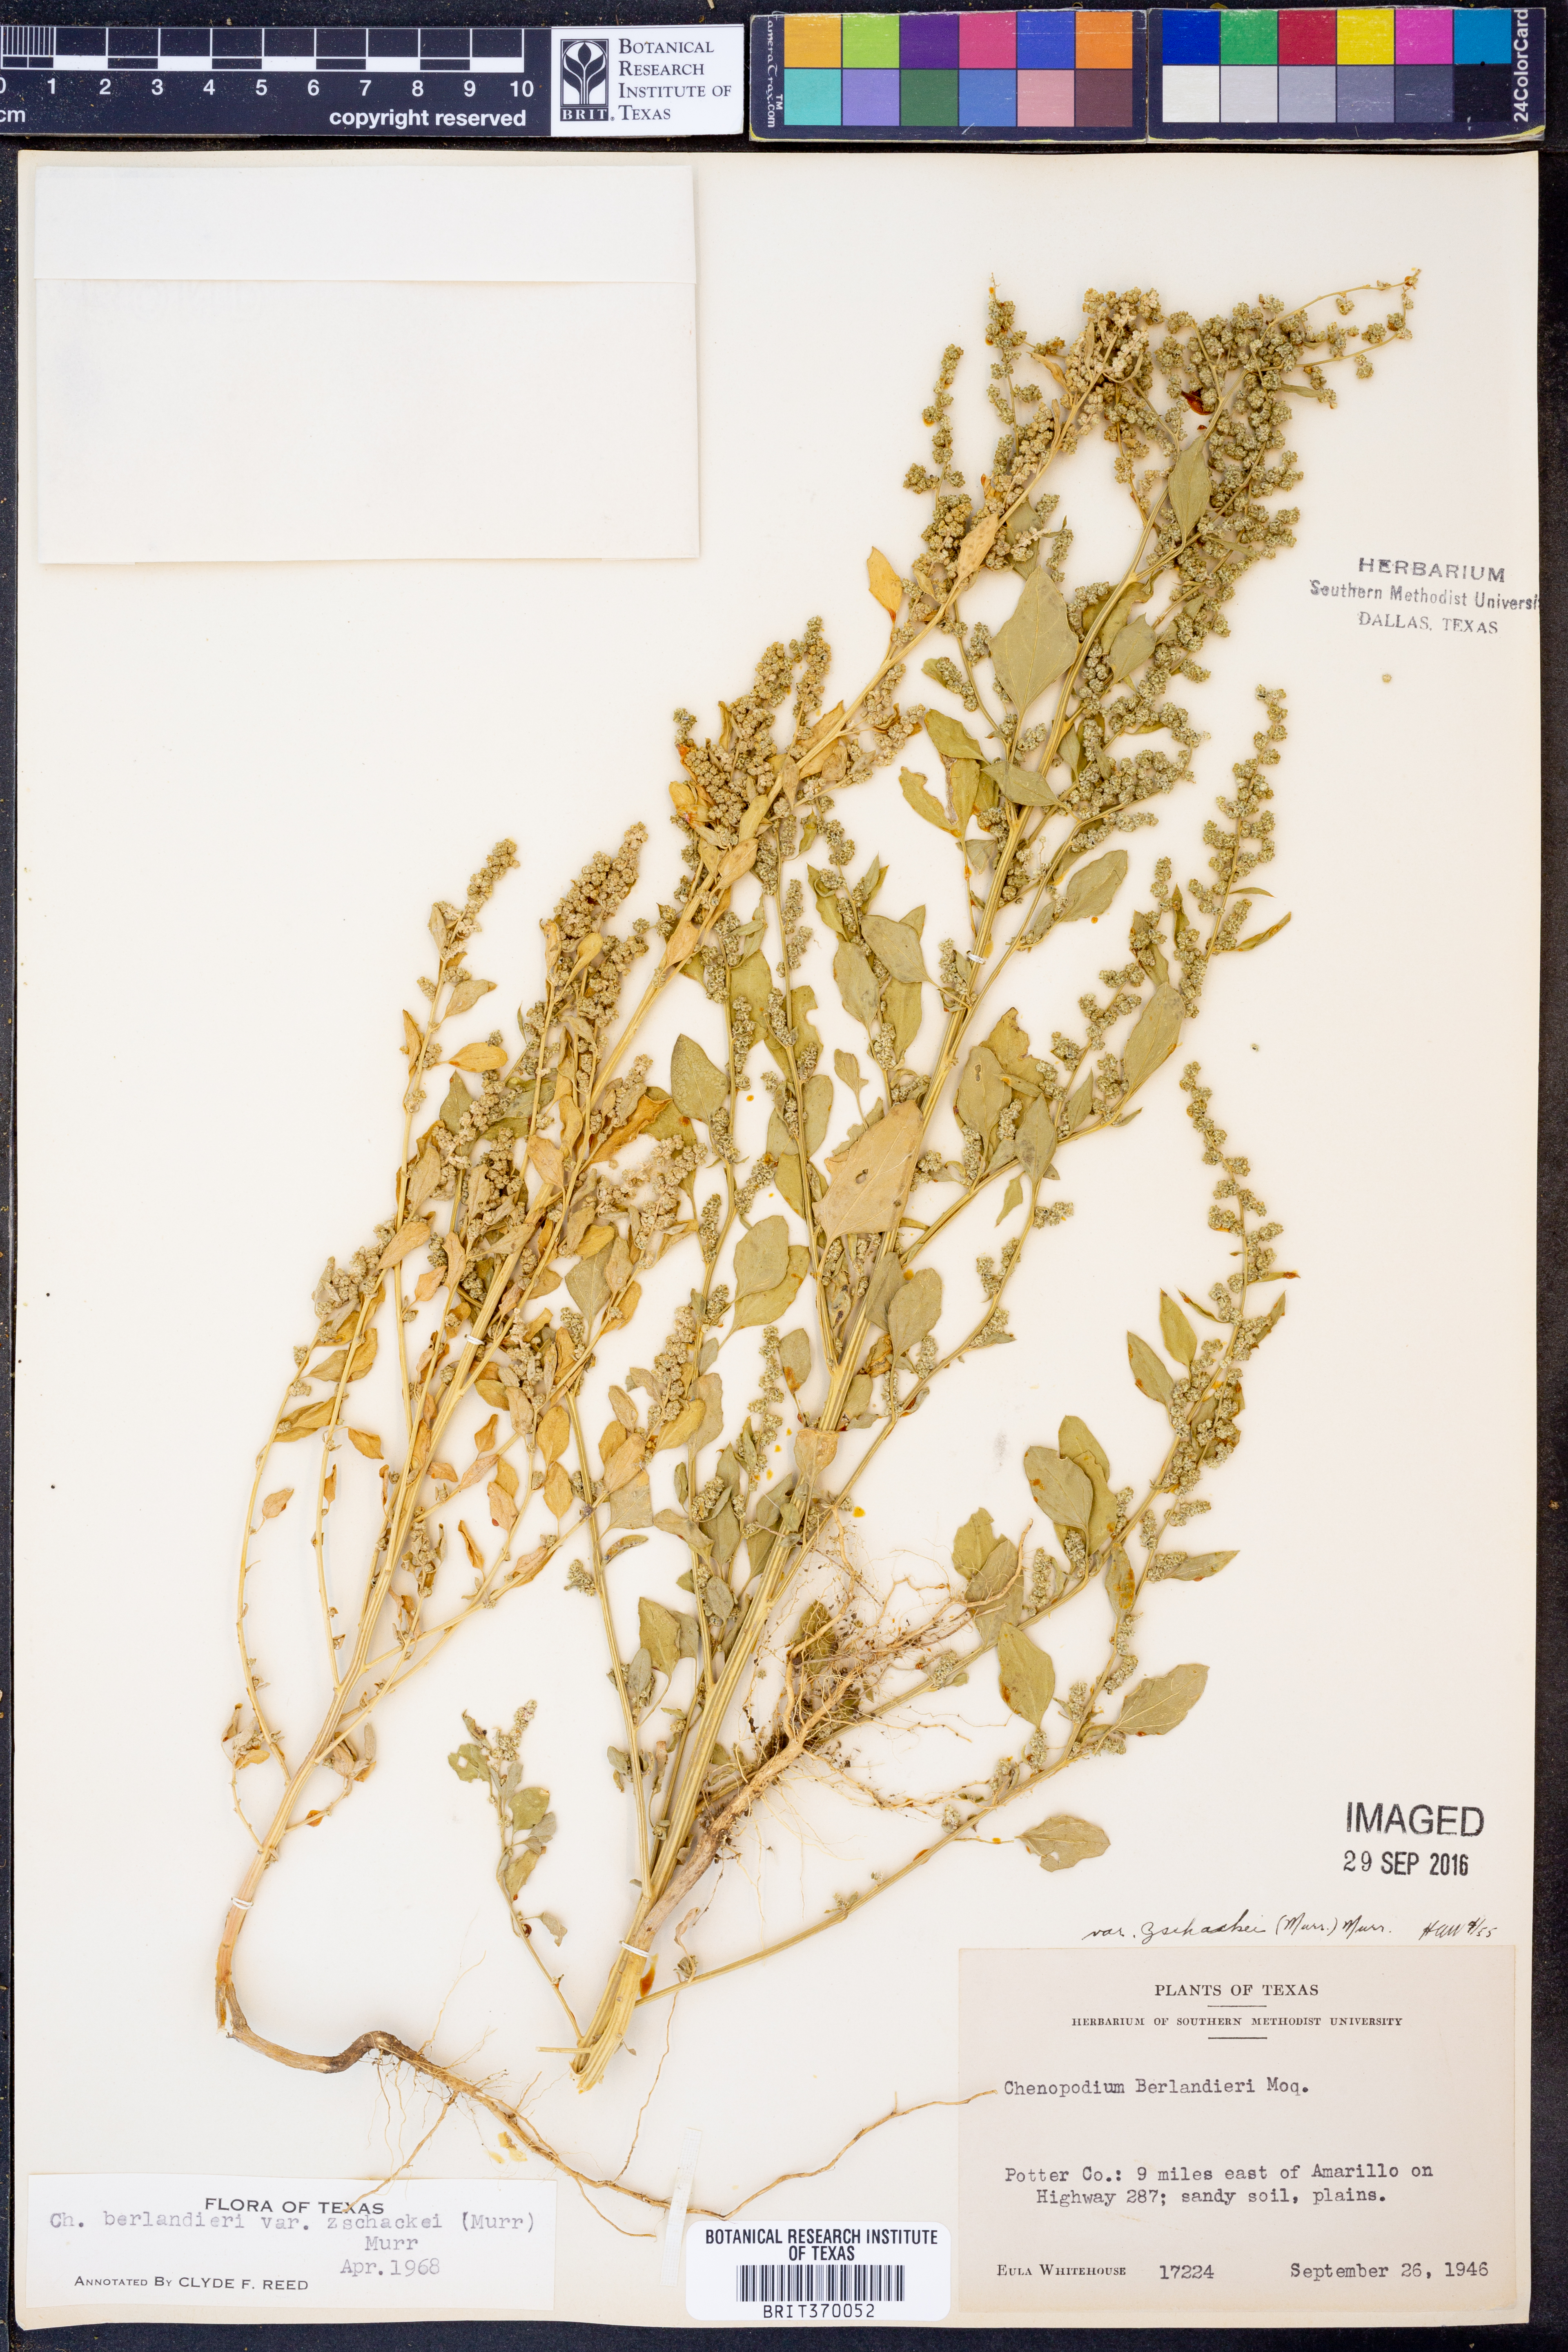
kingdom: Plantae
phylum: Tracheophyta
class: Magnoliopsida
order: Caryophyllales
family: Amaranthaceae
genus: Chenopodium
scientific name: Chenopodium berlandieri
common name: Pit-seed goosefoot
